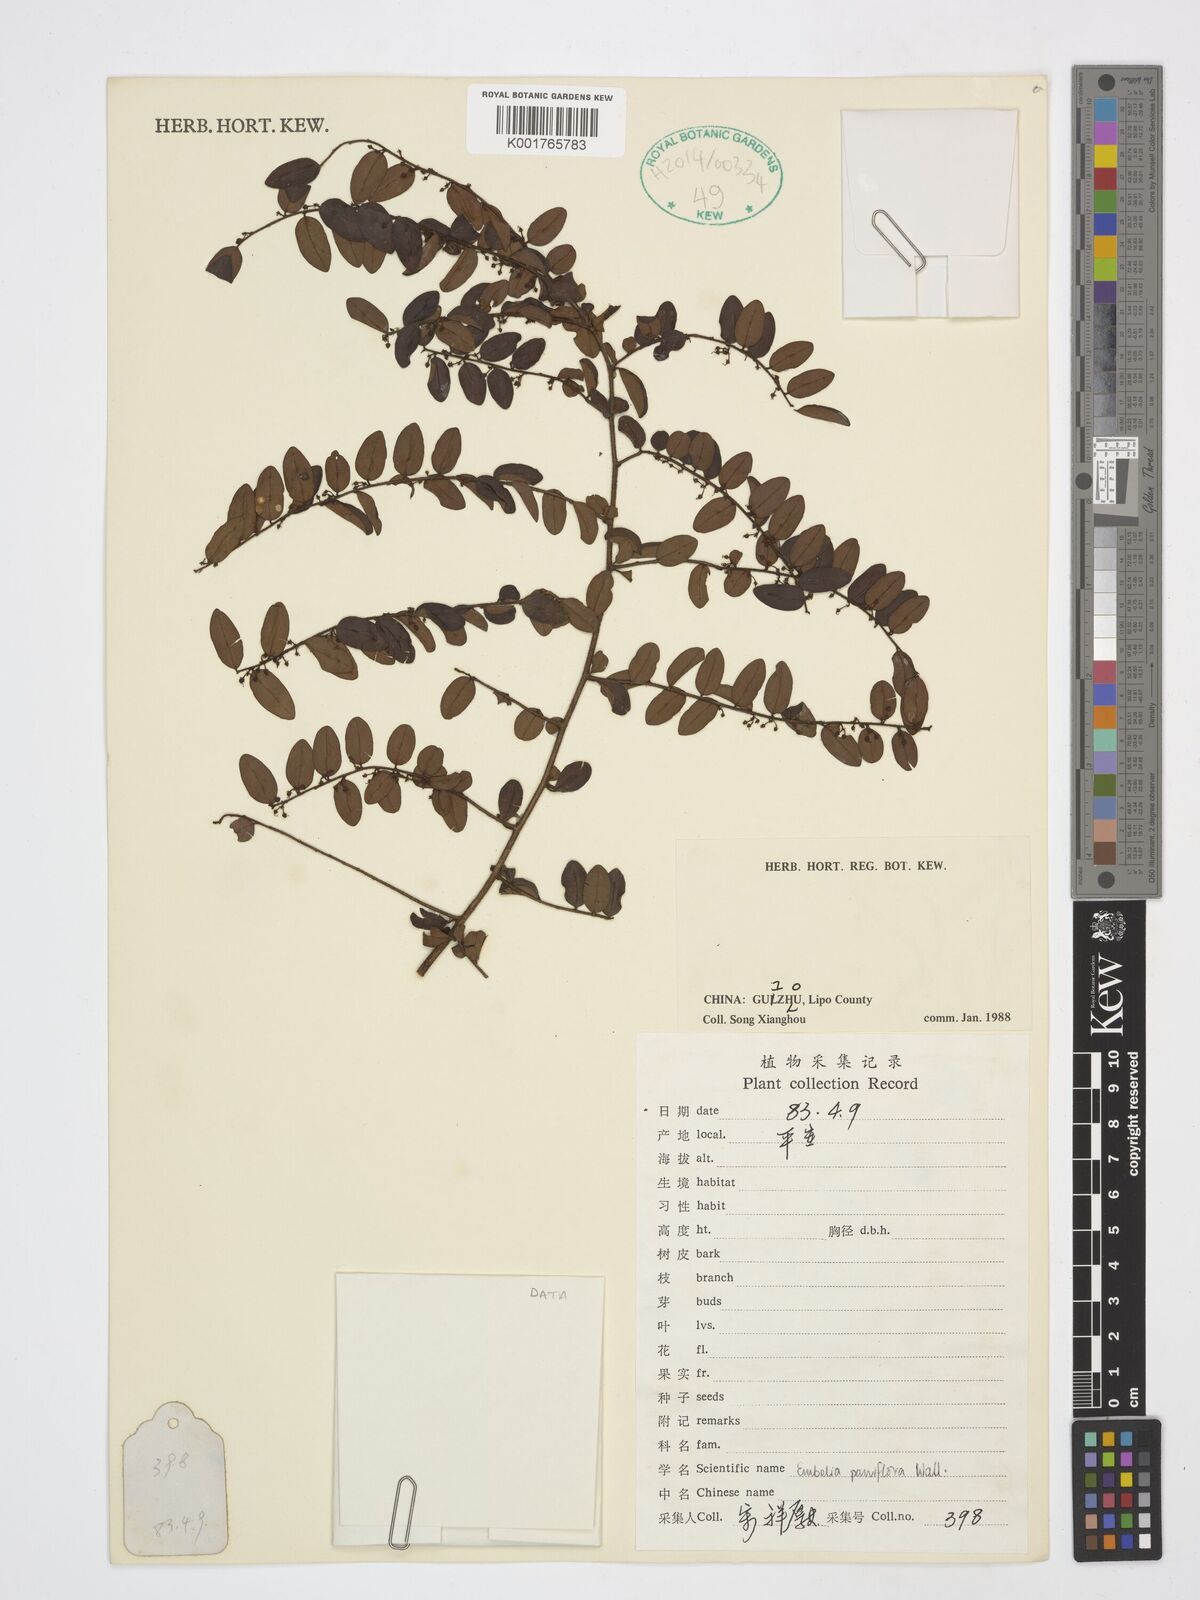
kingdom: Plantae
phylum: Tracheophyta
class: Magnoliopsida
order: Ericales
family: Primulaceae
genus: Embelia
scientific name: Embelia parviflora
